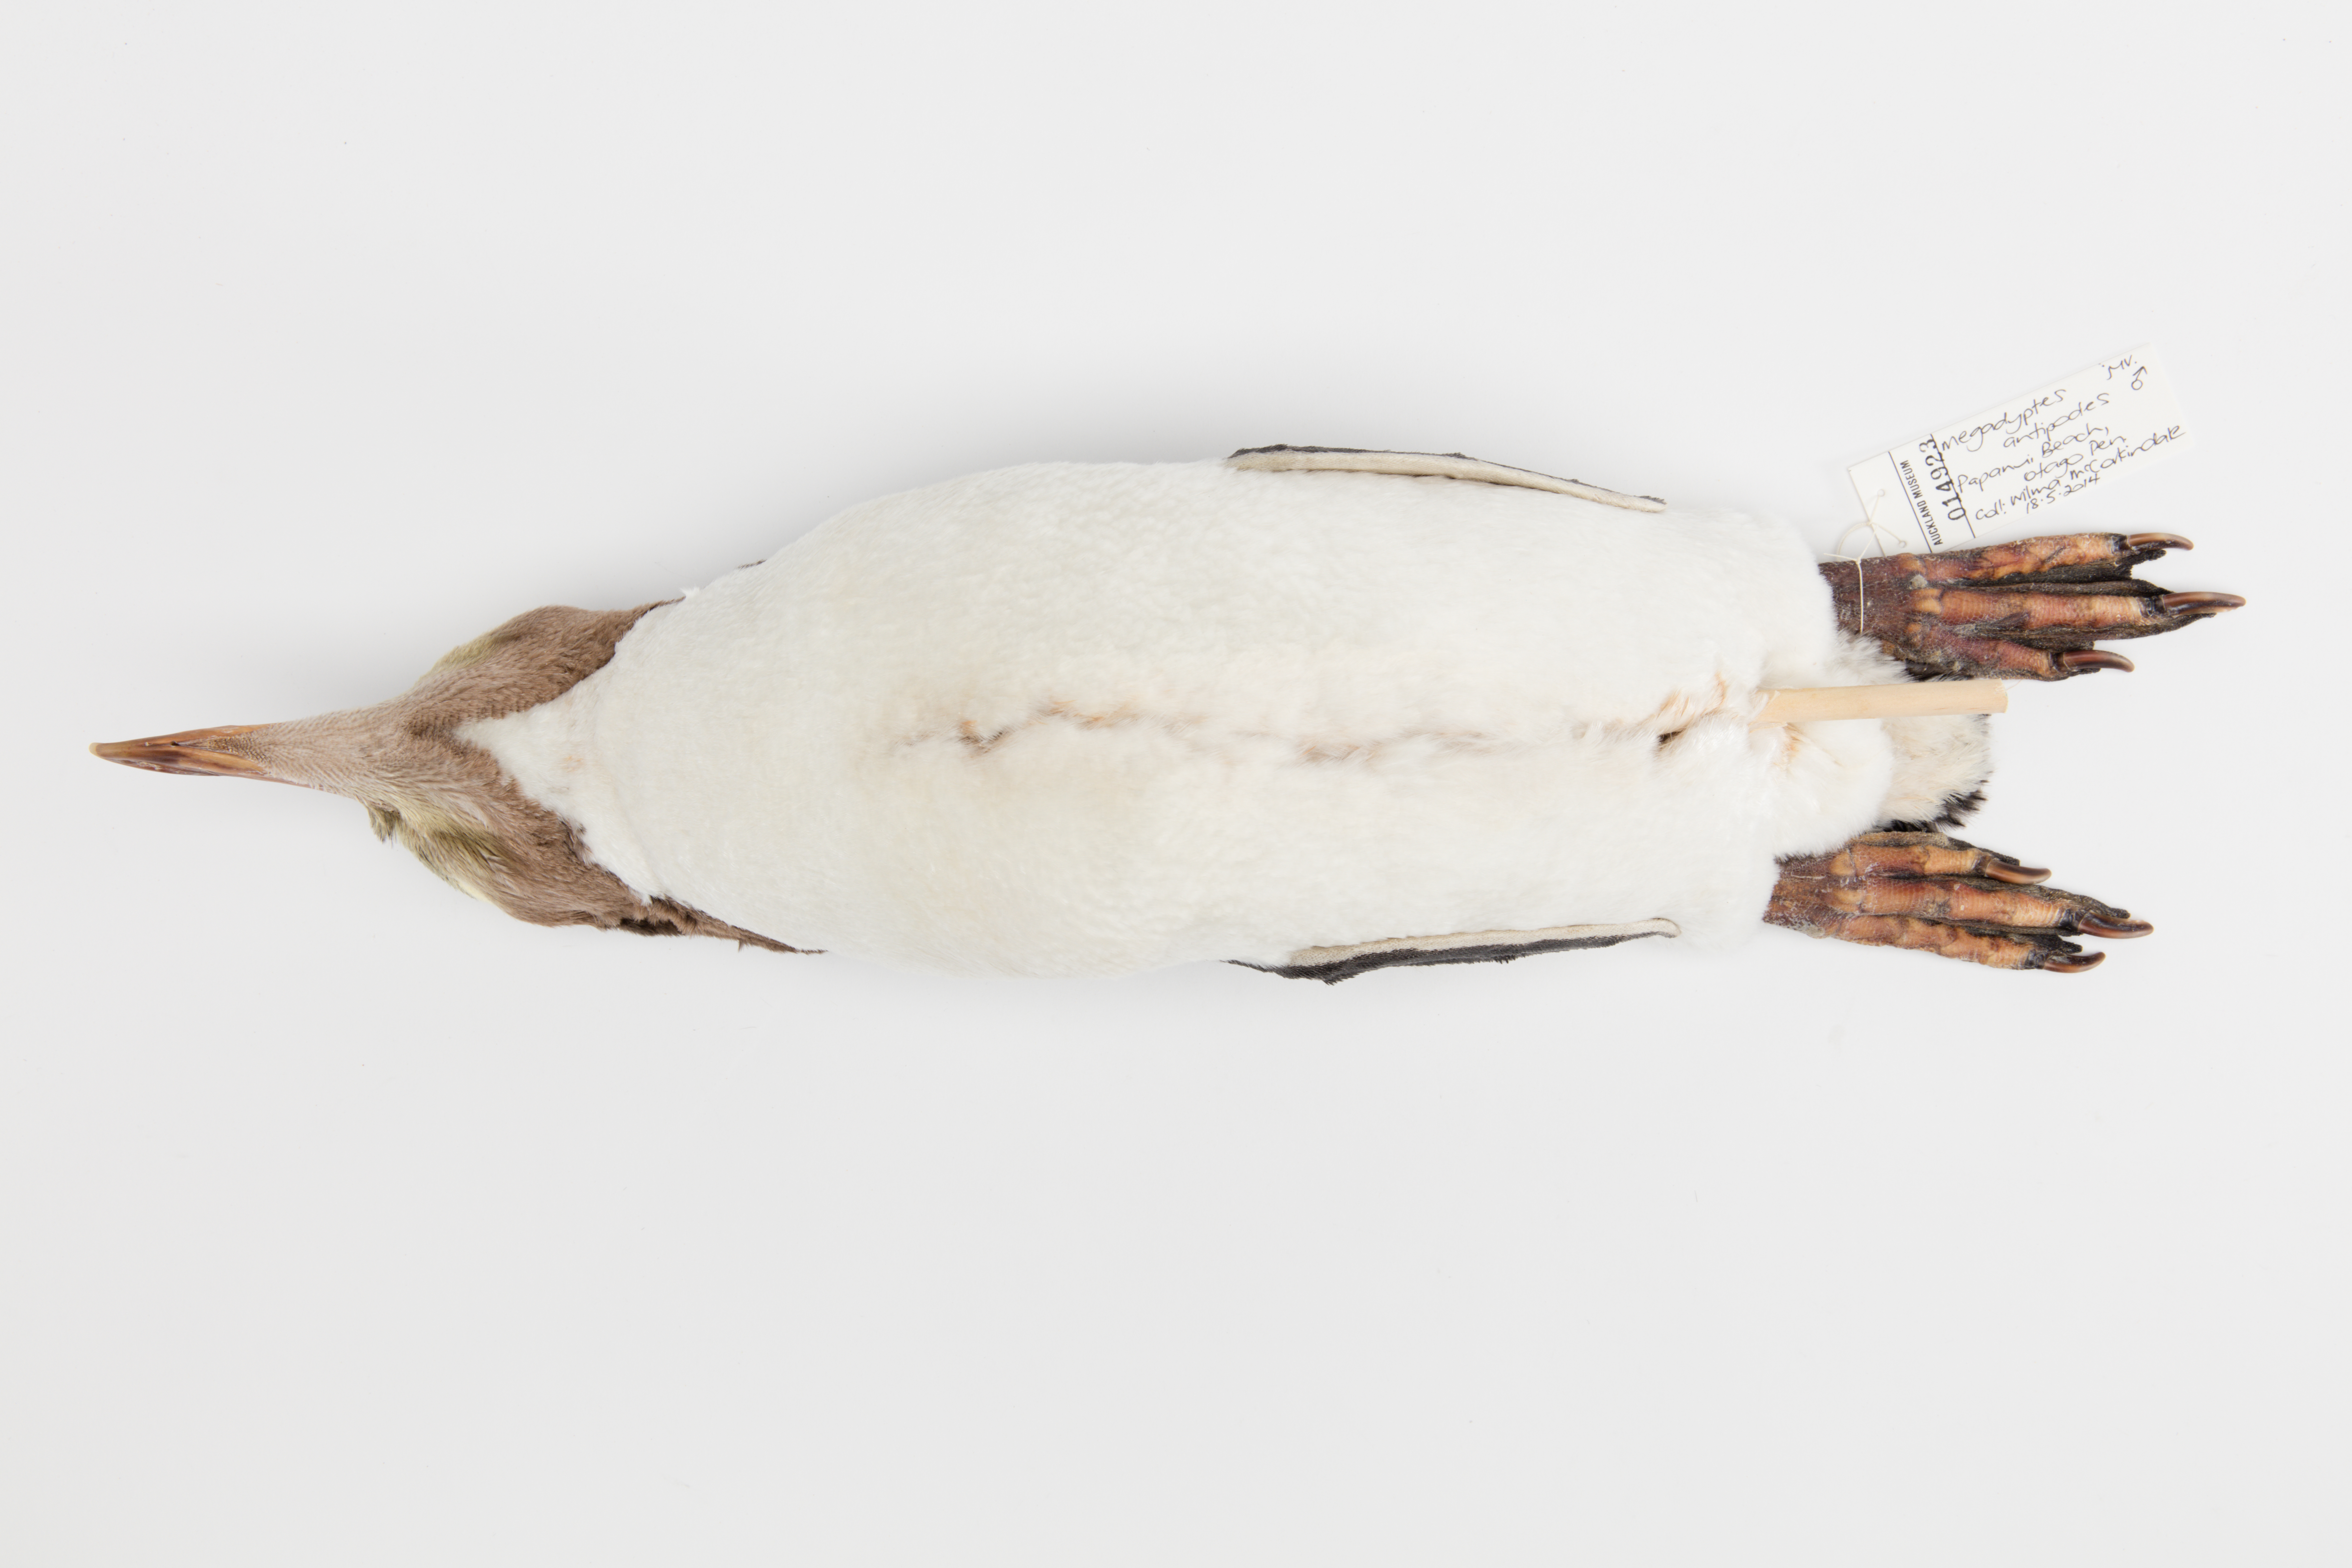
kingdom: Animalia
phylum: Chordata
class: Aves
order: Sphenisciformes
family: Spheniscidae
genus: Megadyptes
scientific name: Megadyptes antipodes
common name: Yellow-eyed penguin
